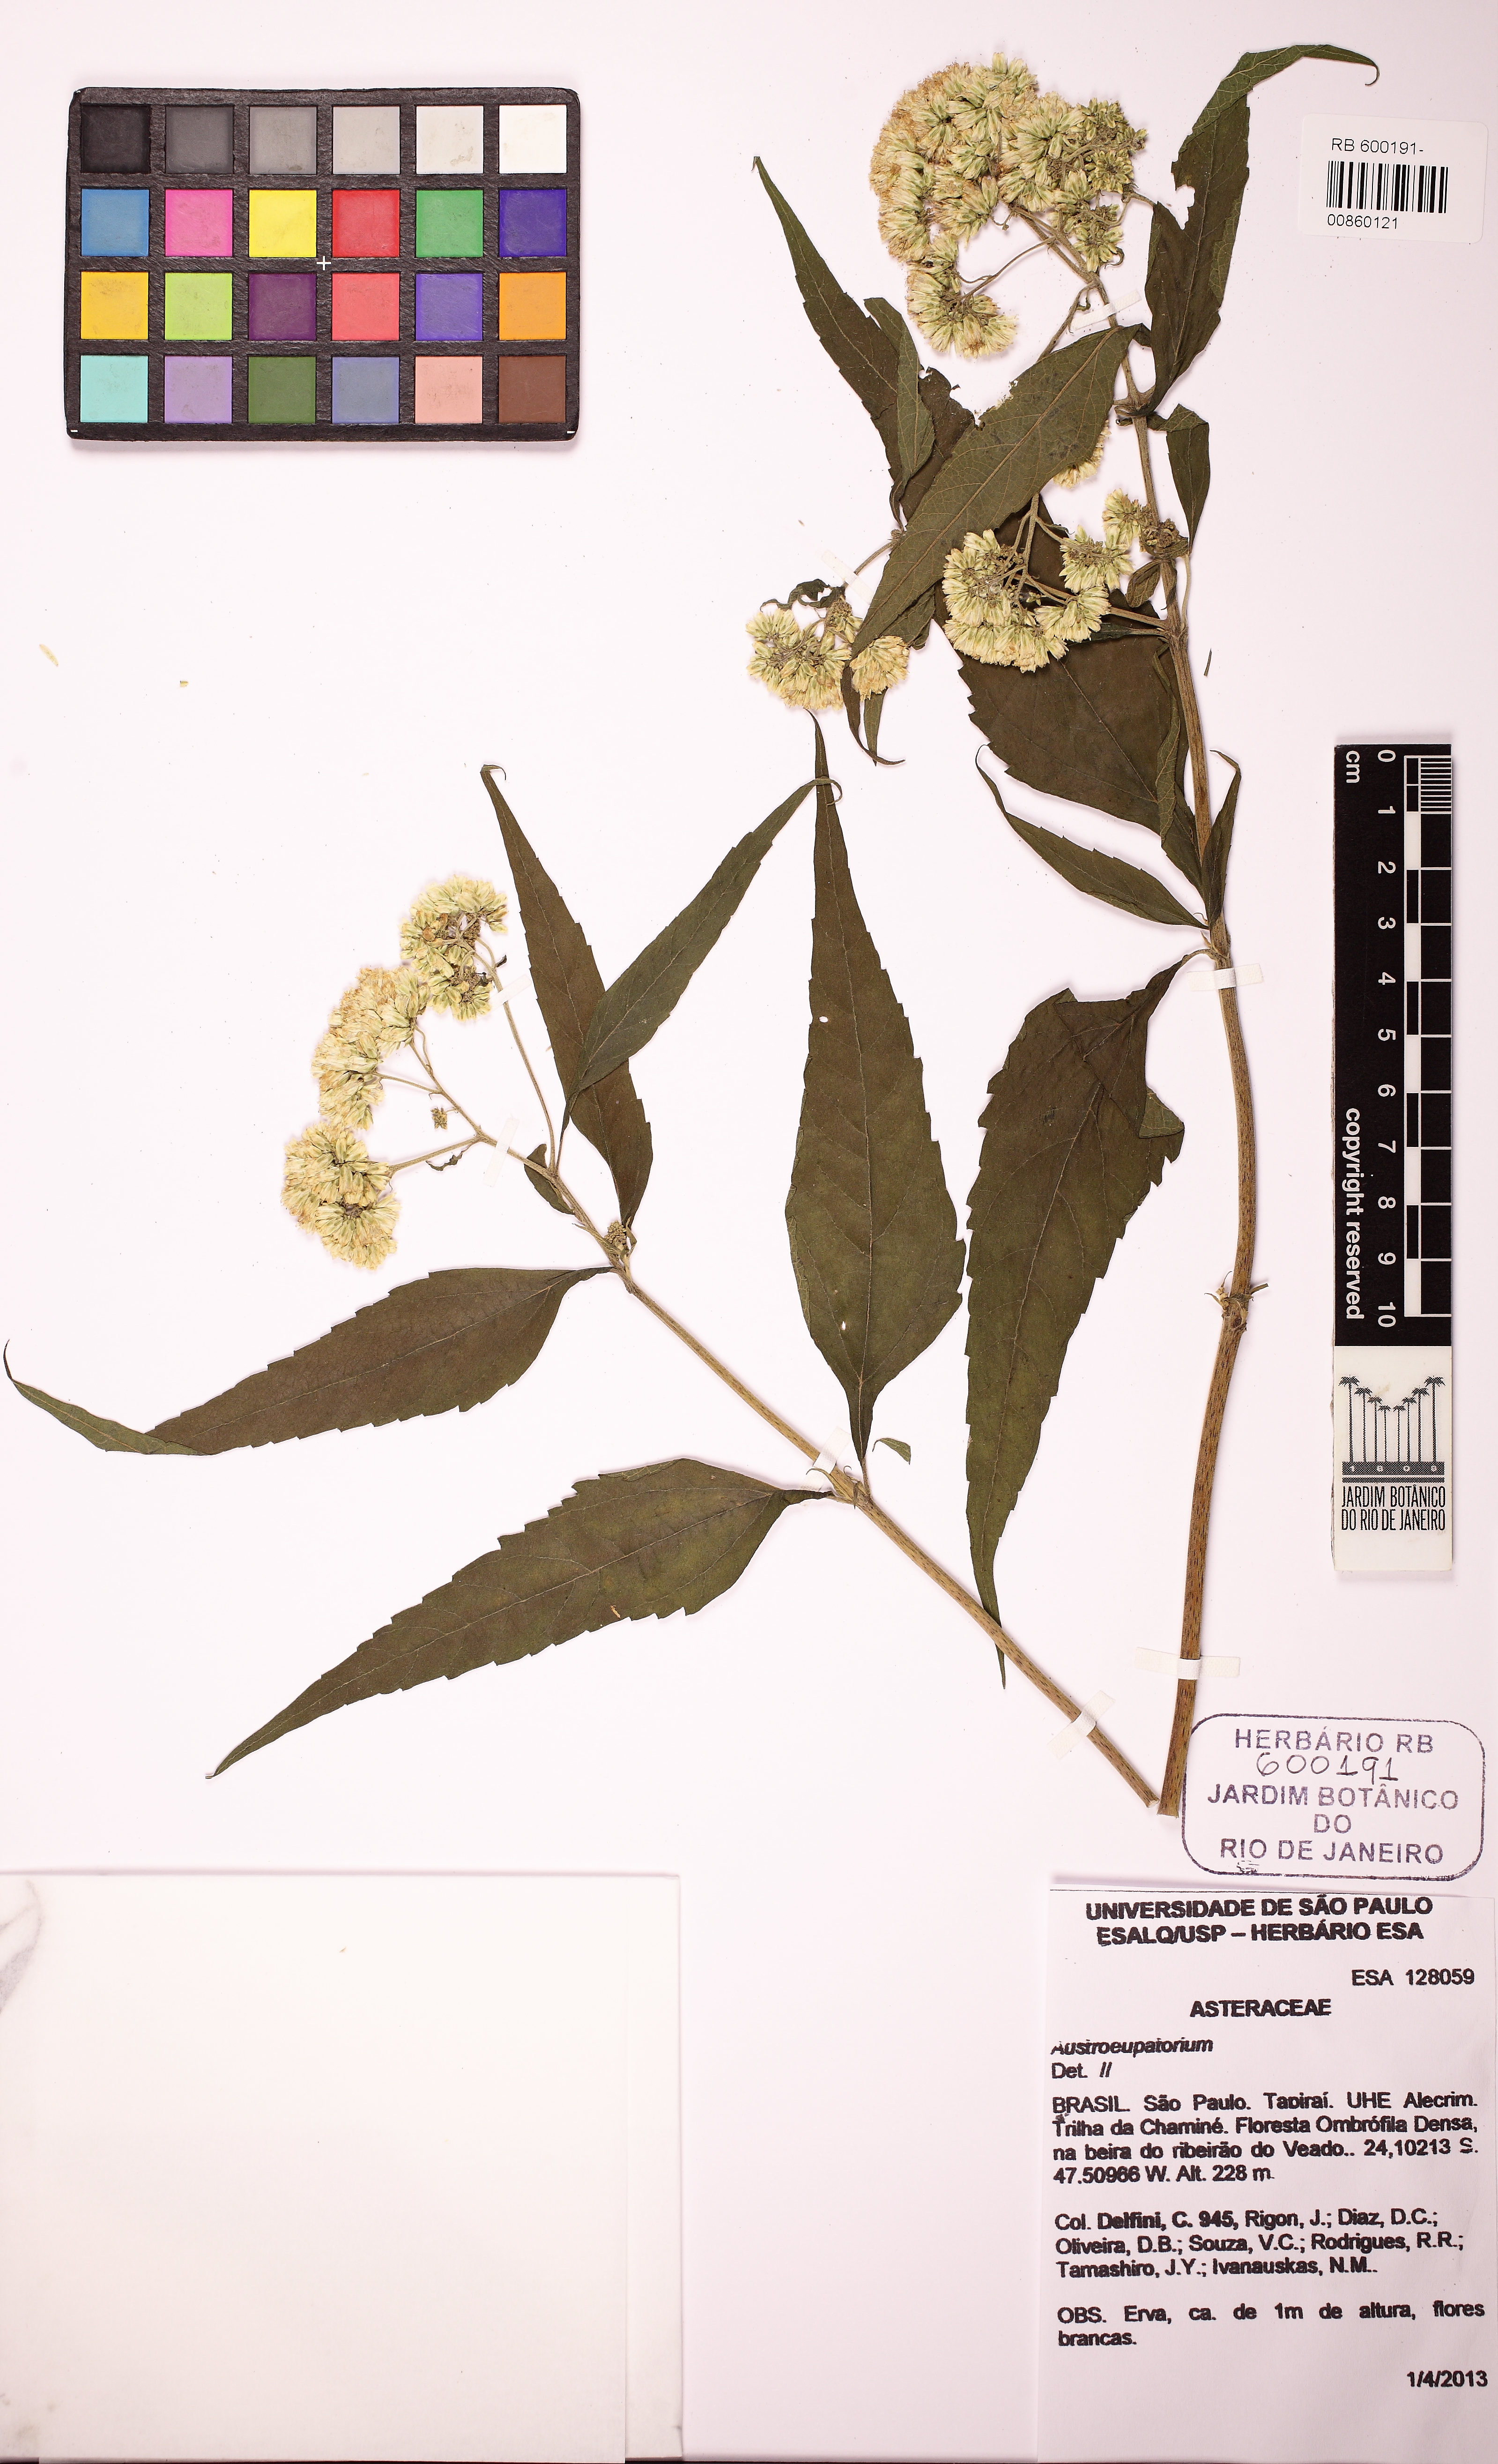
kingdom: Plantae
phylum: Tracheophyta
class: Magnoliopsida
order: Asterales
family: Asteraceae
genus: Austroeupatorium
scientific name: Austroeupatorium
